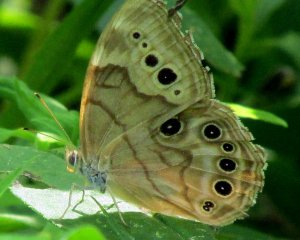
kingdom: Animalia
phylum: Arthropoda
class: Insecta
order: Lepidoptera
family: Nymphalidae
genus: Lethe
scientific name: Lethe anthedon
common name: Northern Pearly-Eye
